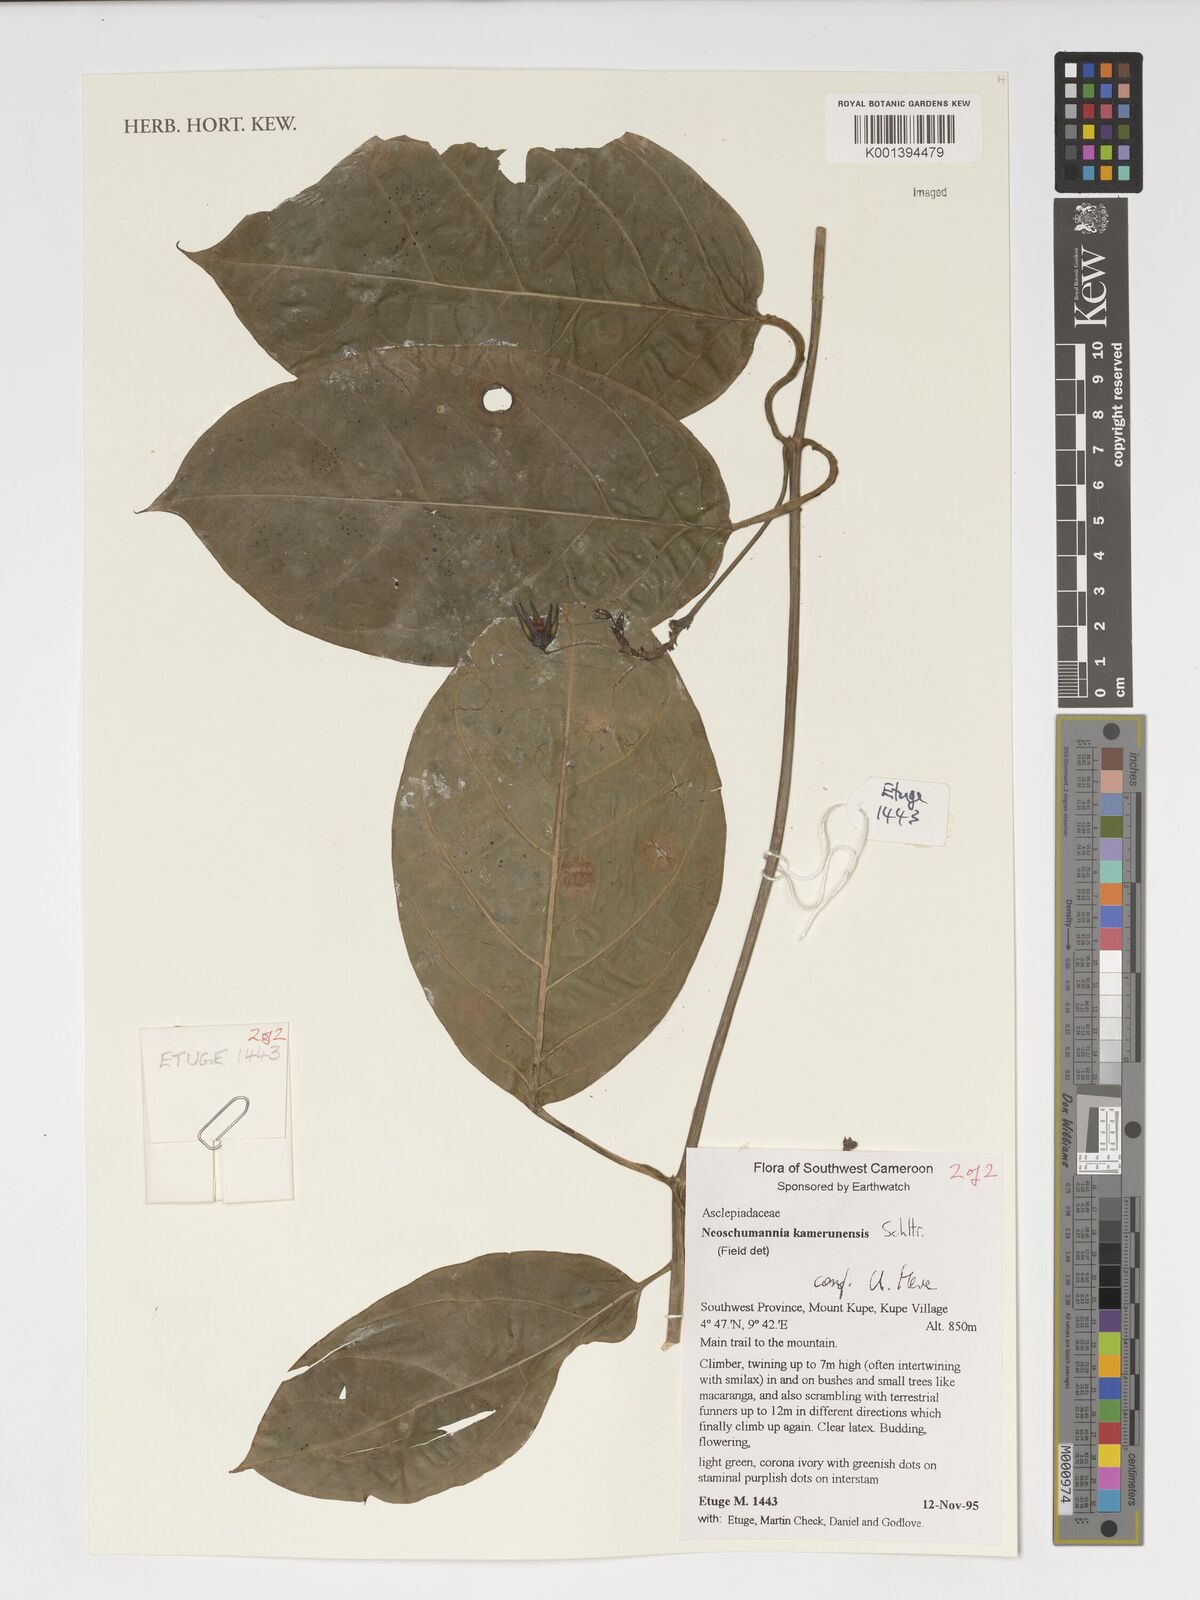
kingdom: Plantae
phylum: Tracheophyta
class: Magnoliopsida
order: Gentianales
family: Apocynaceae
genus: Neoschumannia
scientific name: Neoschumannia kamerunensis
